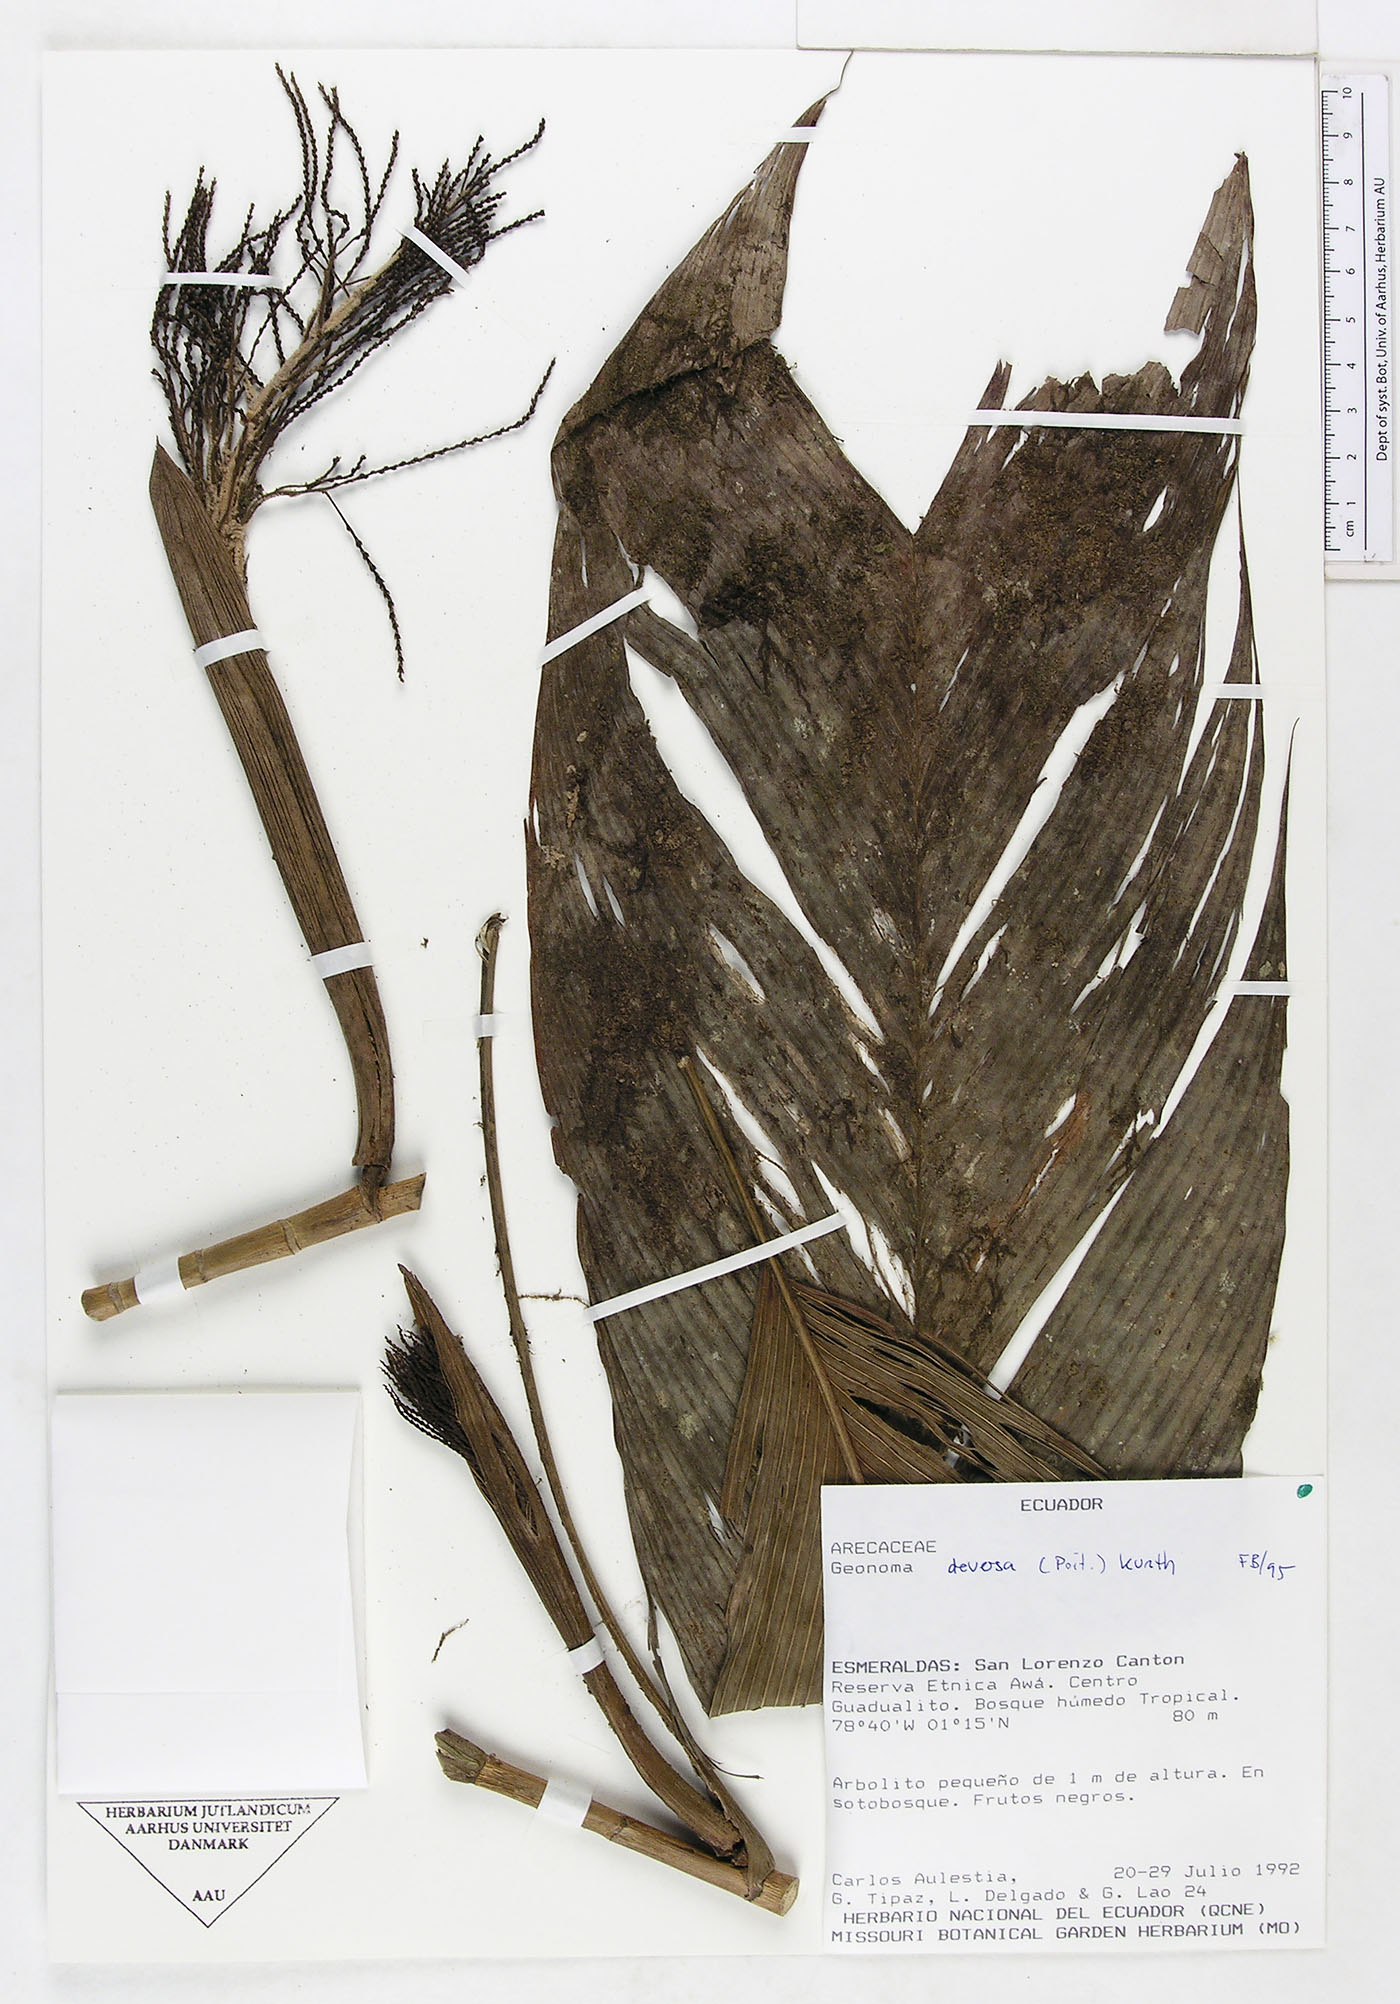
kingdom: Plantae
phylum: Tracheophyta
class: Liliopsida
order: Arecales
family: Arecaceae
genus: Geonoma
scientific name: Geonoma deversa
